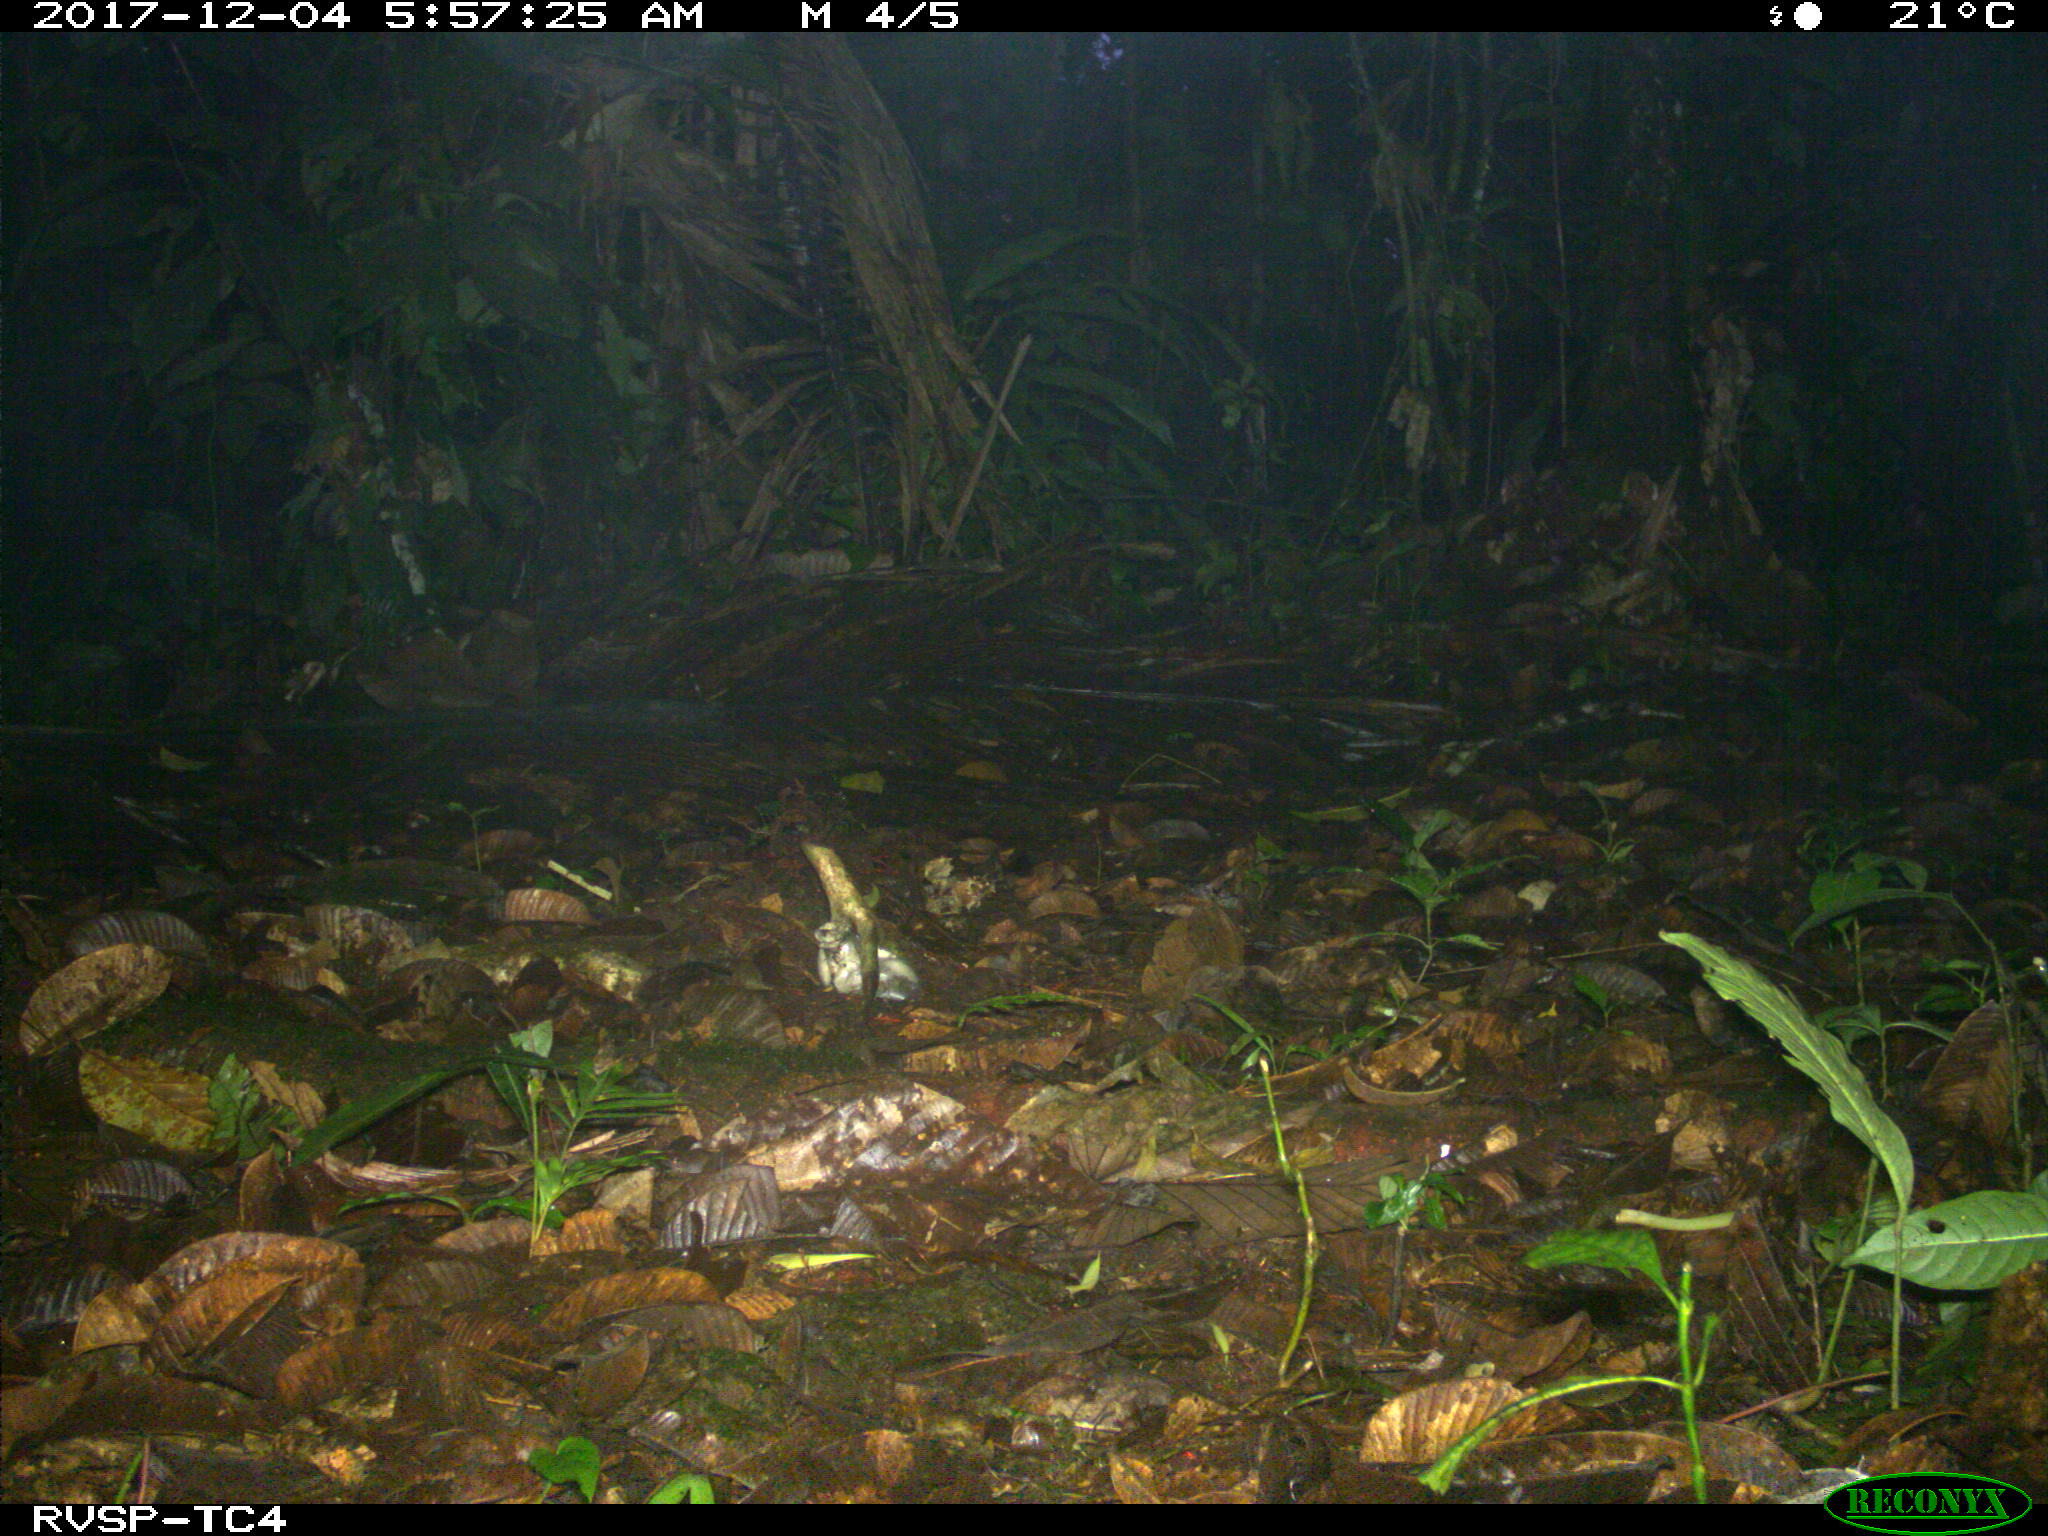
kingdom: Animalia
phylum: Chordata
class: Mammalia
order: Rodentia
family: Sciuridae
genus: Sciurus
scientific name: Sciurus granatensis
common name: Red-tailed squirrel
